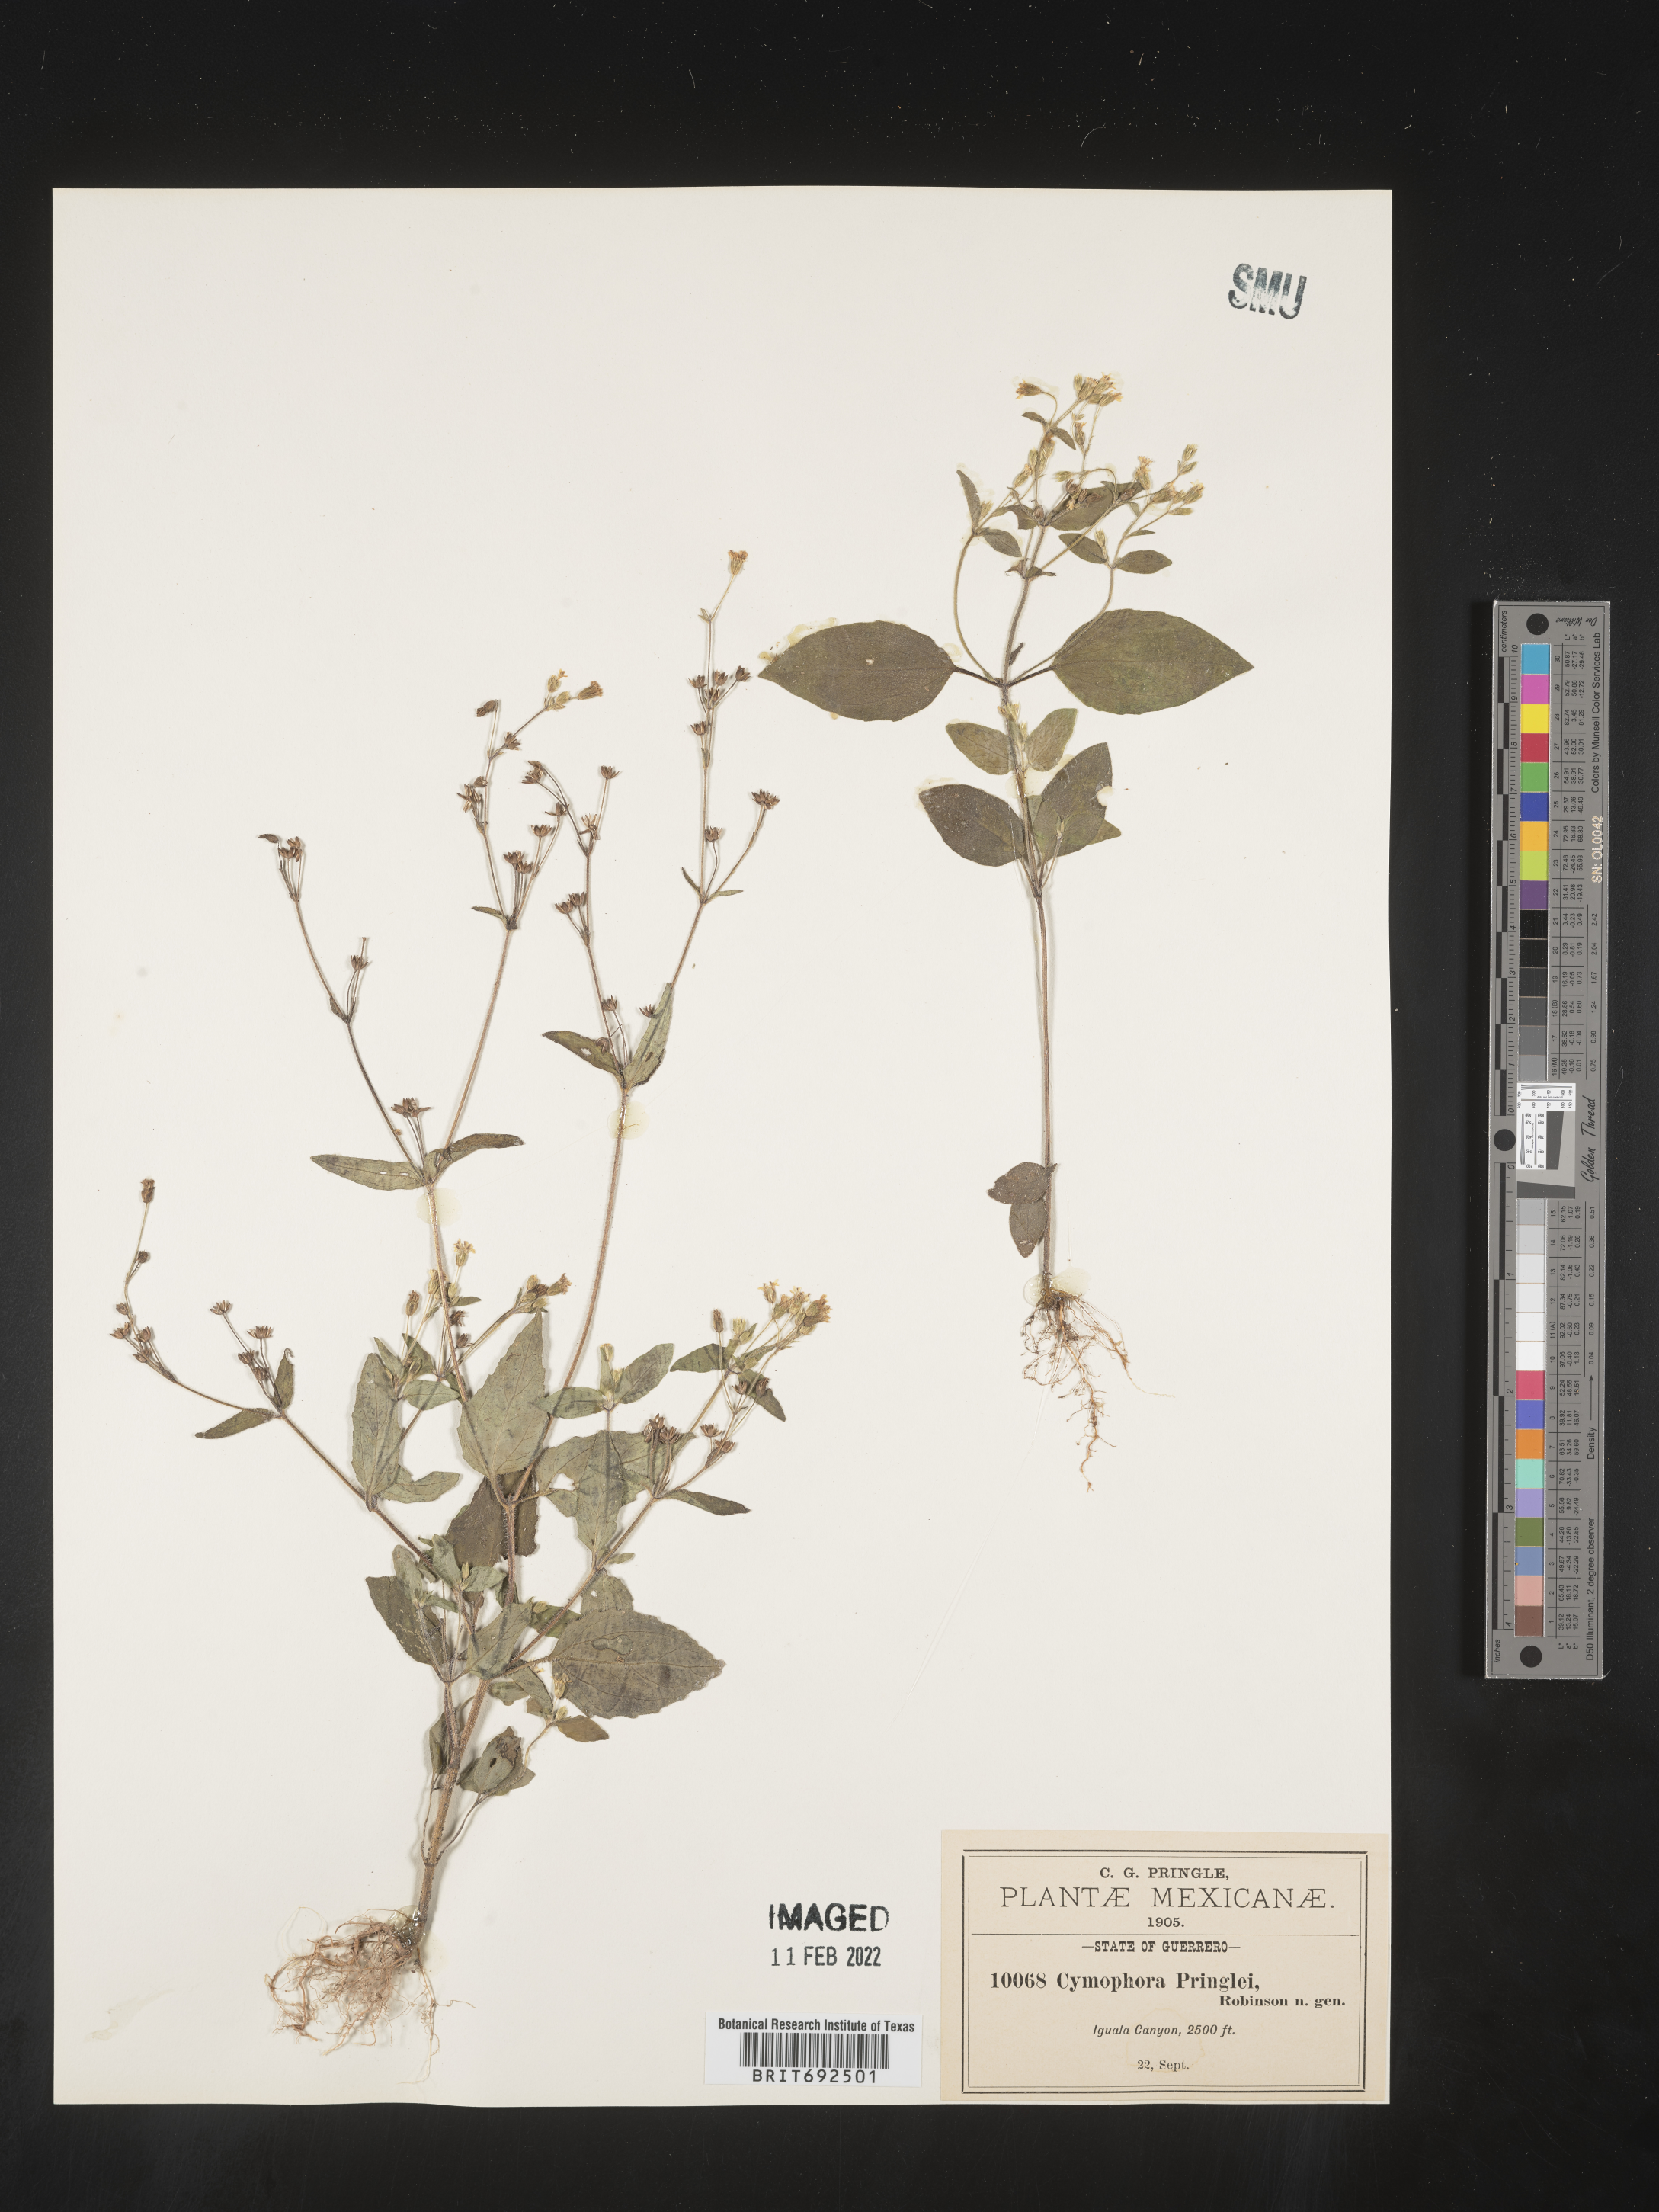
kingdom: Plantae
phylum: Tracheophyta
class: Magnoliopsida
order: Asterales
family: Asteraceae
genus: Cymophora
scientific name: Cymophora pringlei
